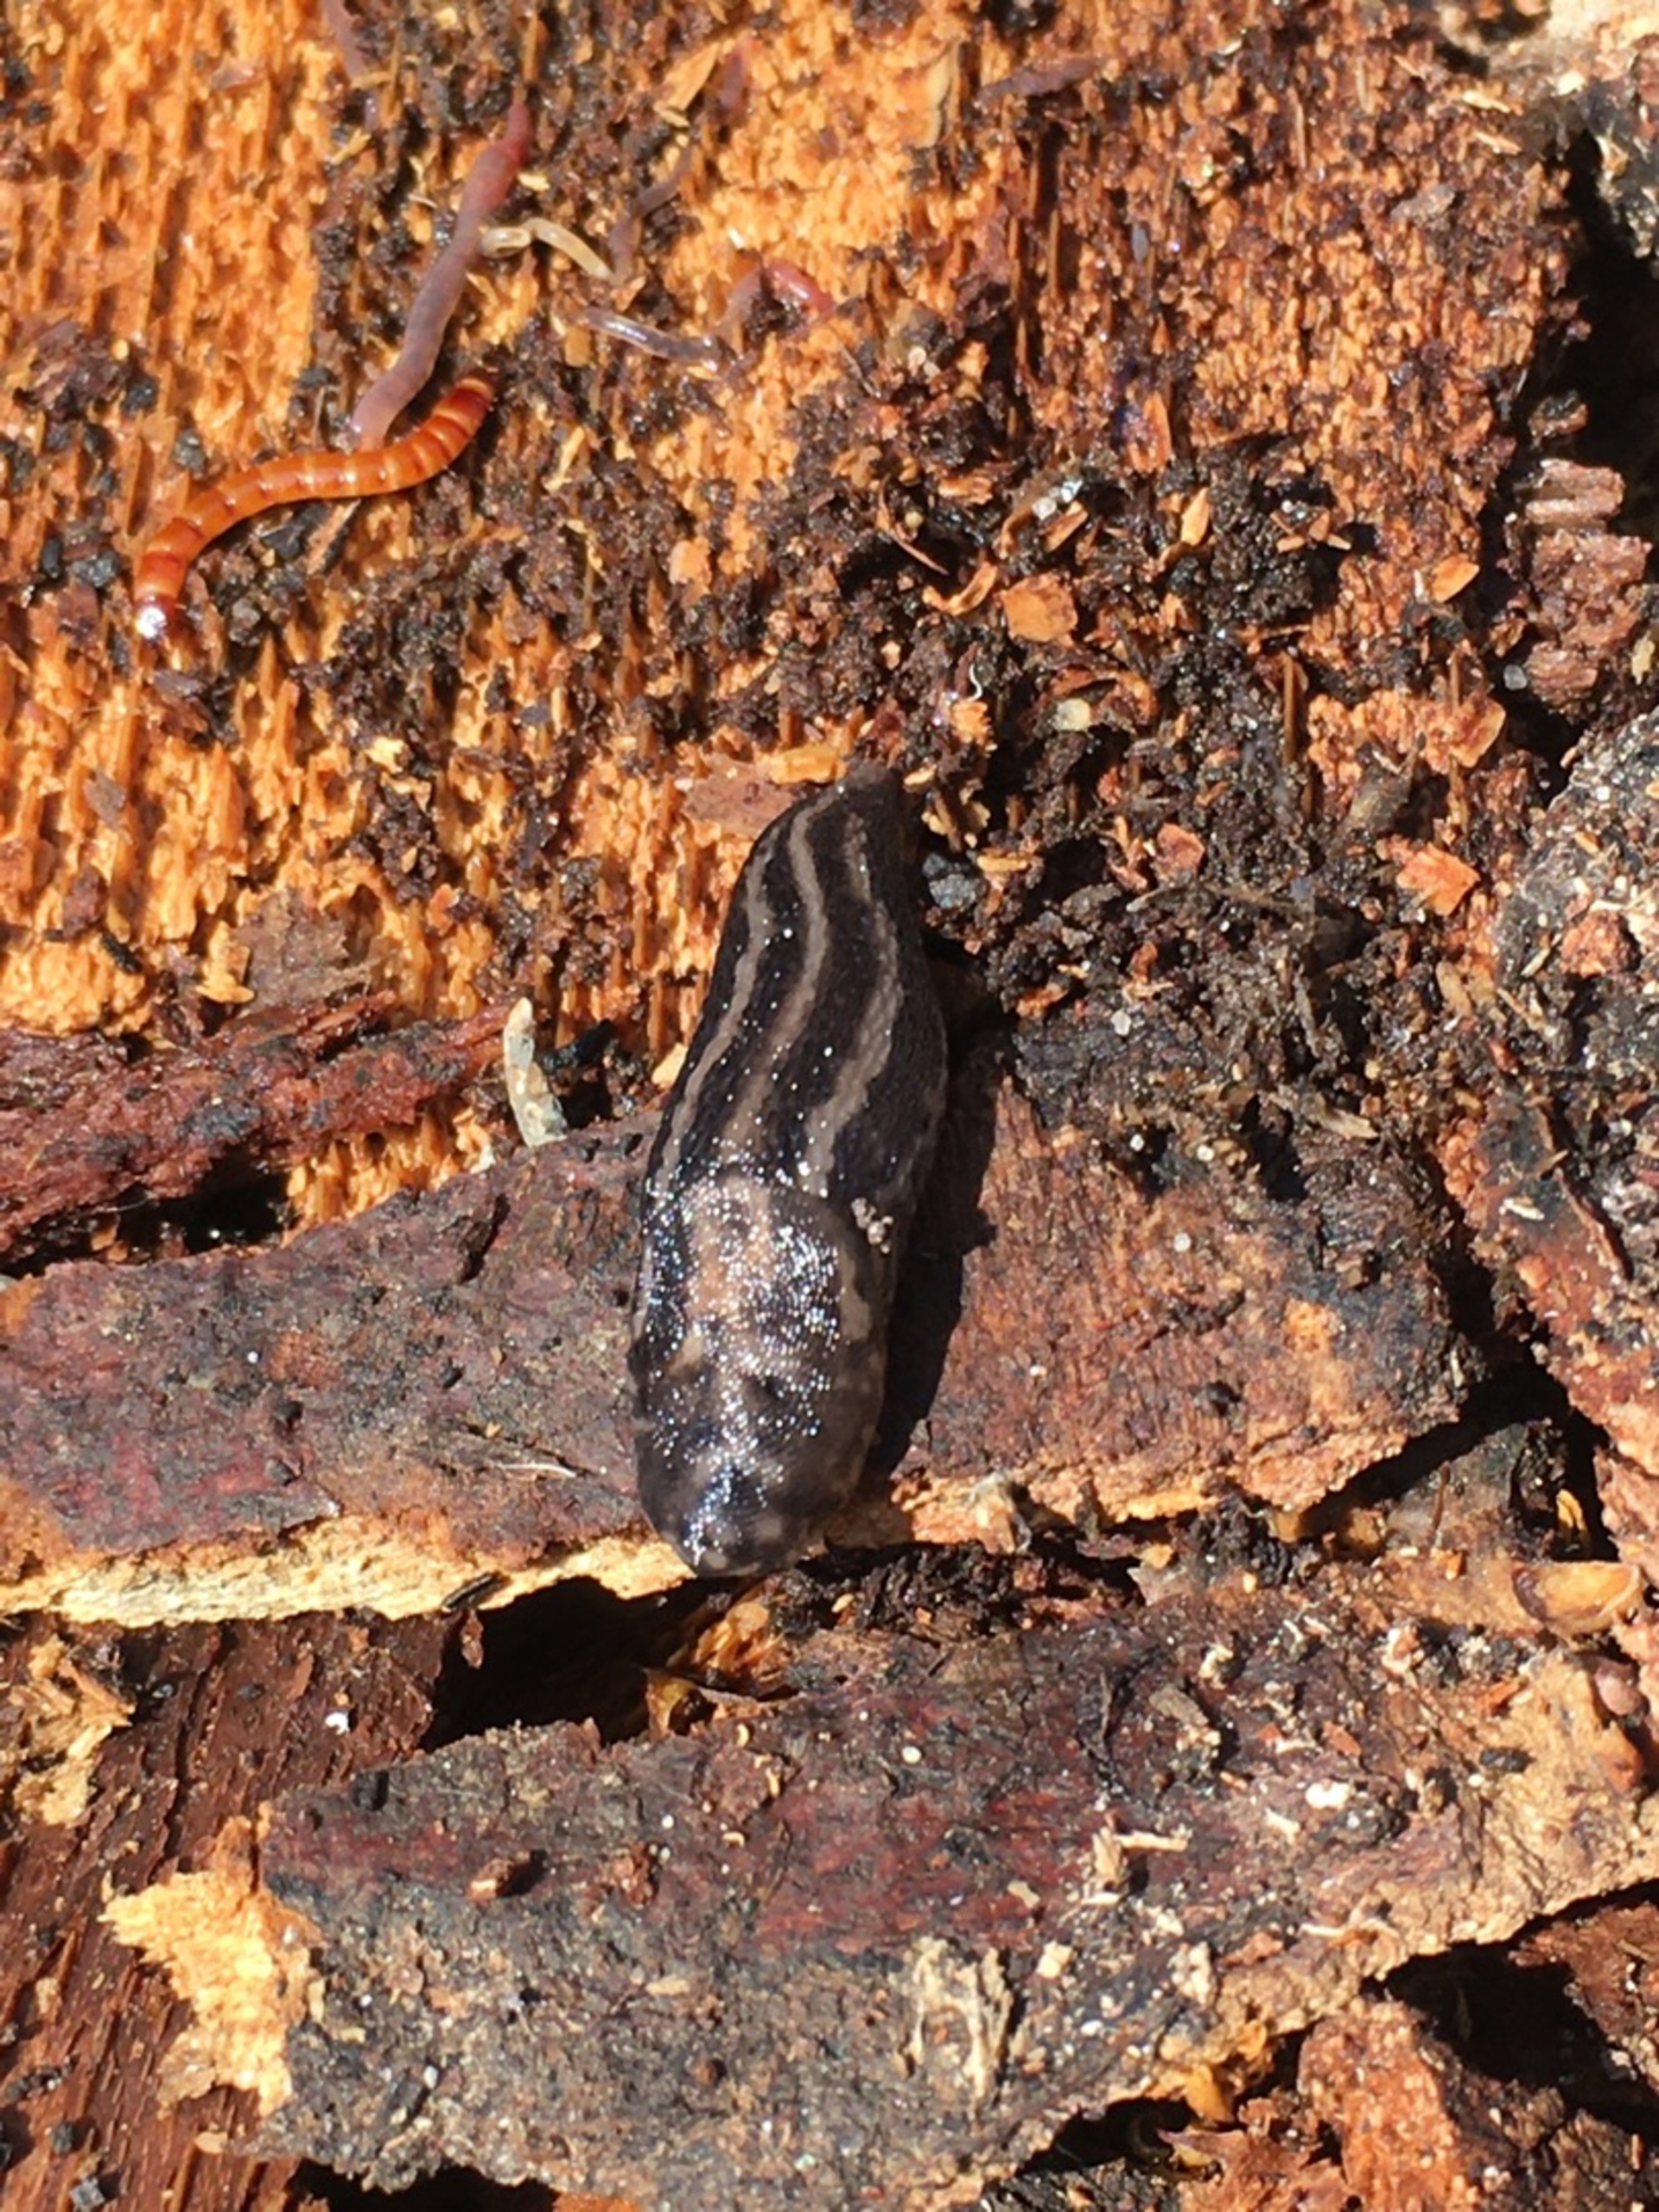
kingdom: Animalia
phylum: Mollusca
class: Gastropoda
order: Stylommatophora
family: Limacidae
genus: Limax
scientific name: Limax maximus
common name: Pantersnegl
